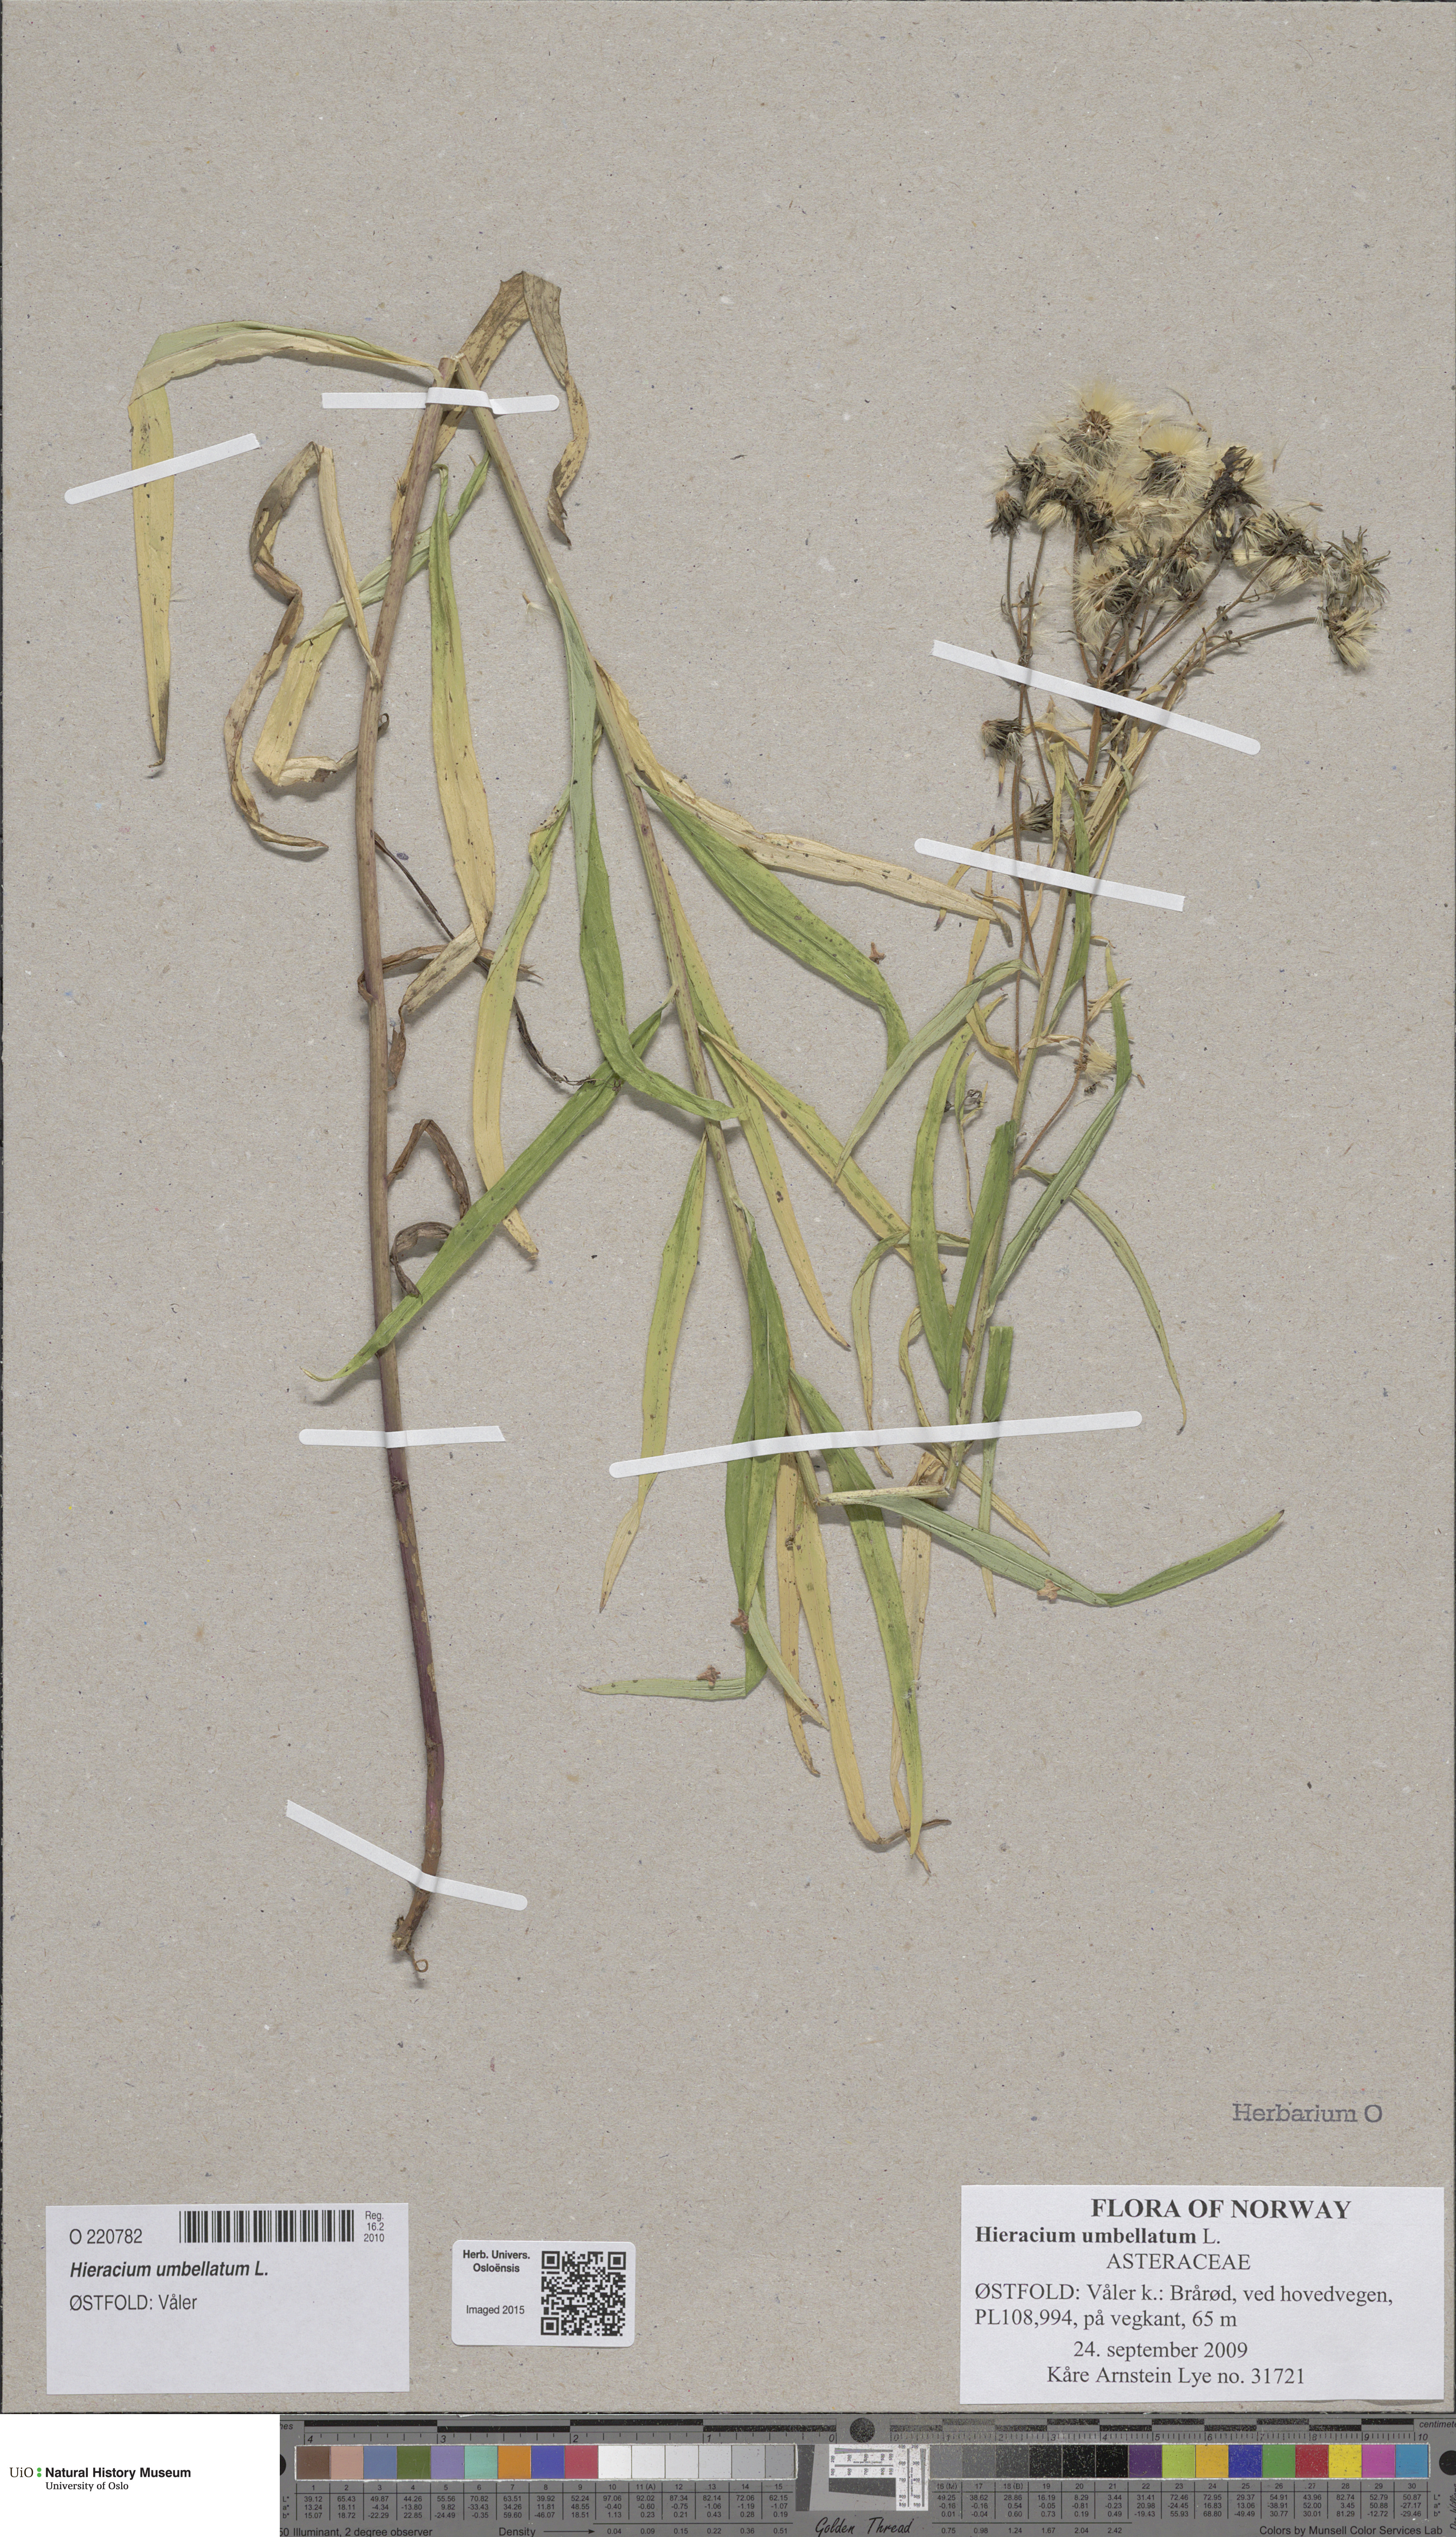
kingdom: Plantae
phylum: Tracheophyta
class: Magnoliopsida
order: Asterales
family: Asteraceae
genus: Hieracium
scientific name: Hieracium umbellatum
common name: Northern hawkweed
